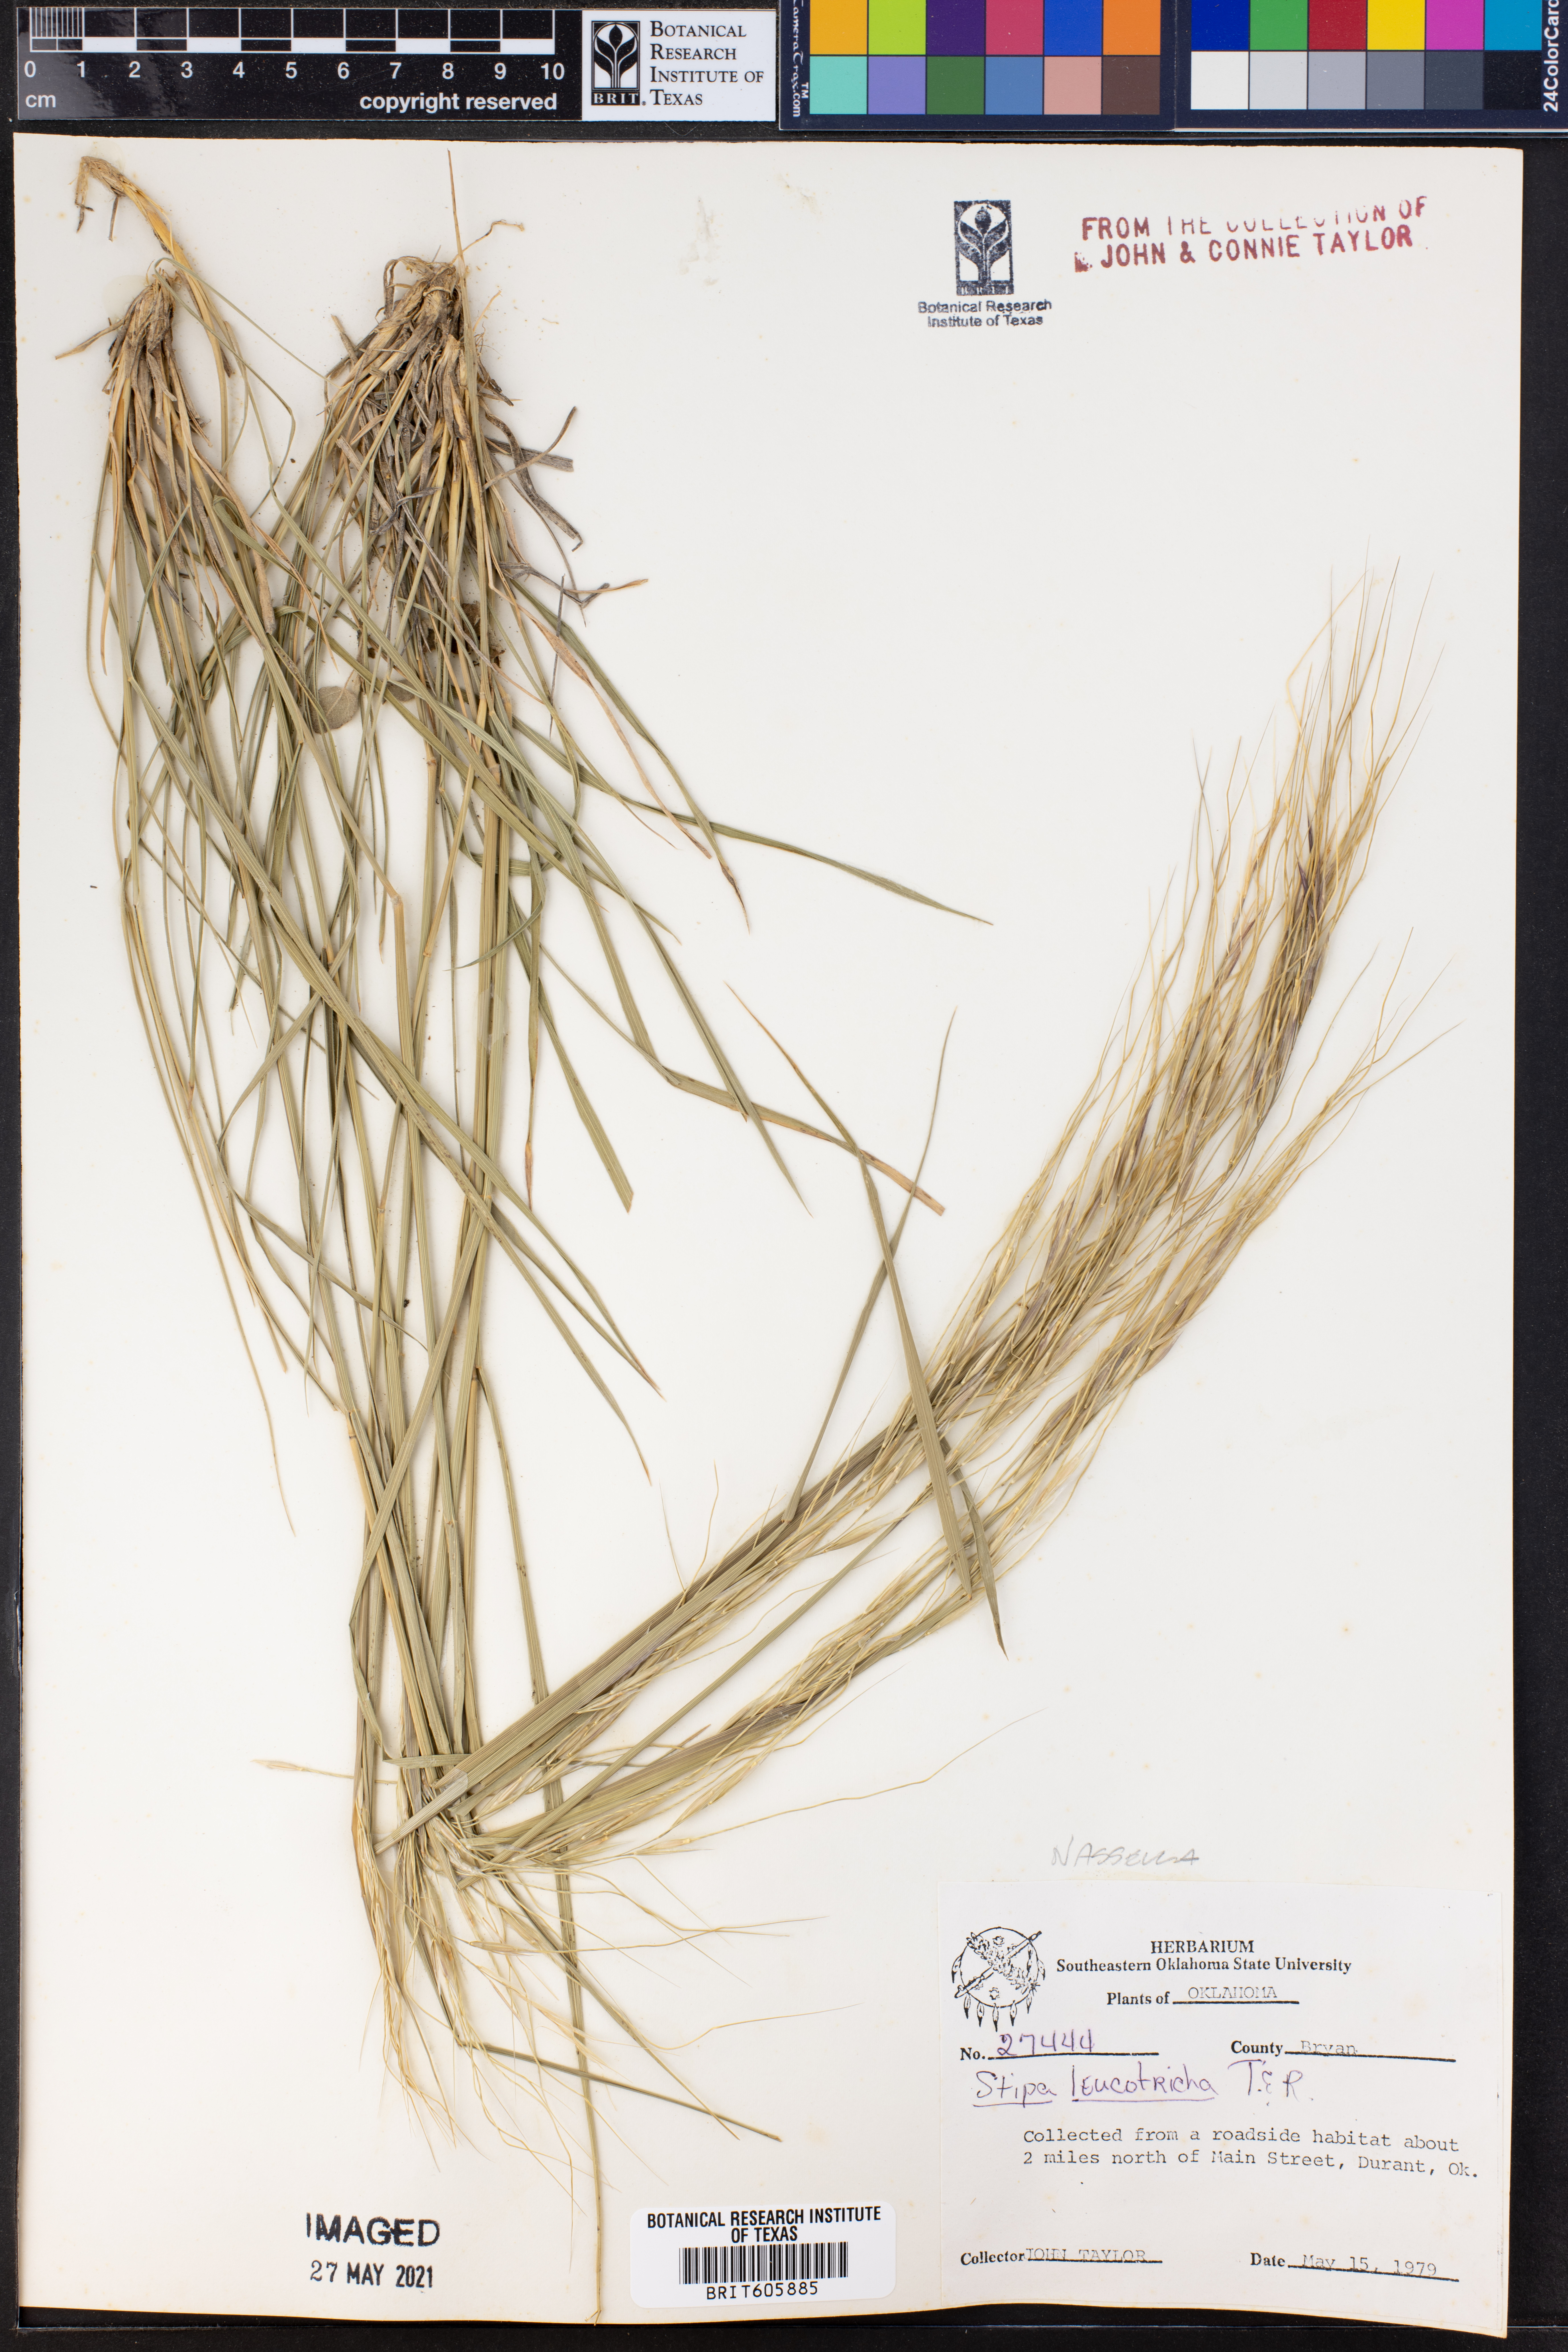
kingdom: Plantae
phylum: Tracheophyta
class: Liliopsida
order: Poales
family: Poaceae
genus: Nassella
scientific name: Nassella leucotricha
